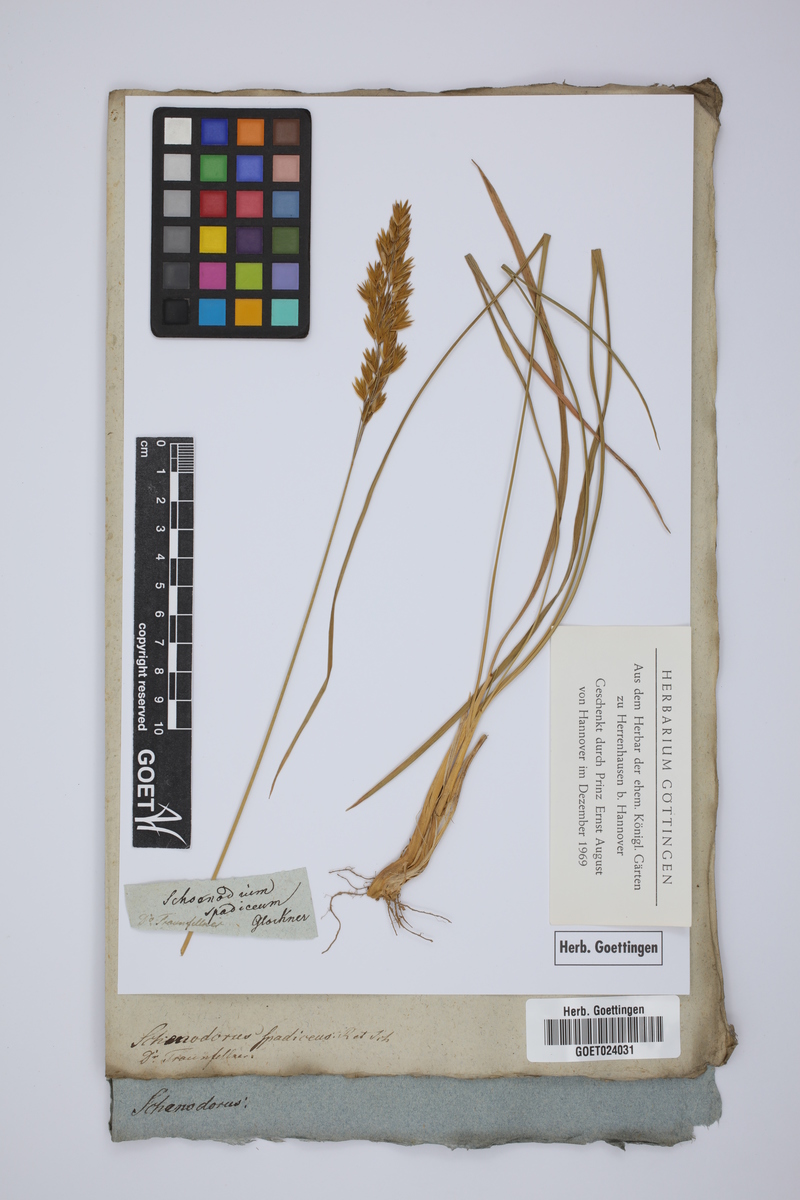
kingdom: Plantae
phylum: Tracheophyta
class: Liliopsida
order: Poales
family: Poaceae
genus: Patzkea
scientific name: Patzkea paniculata
